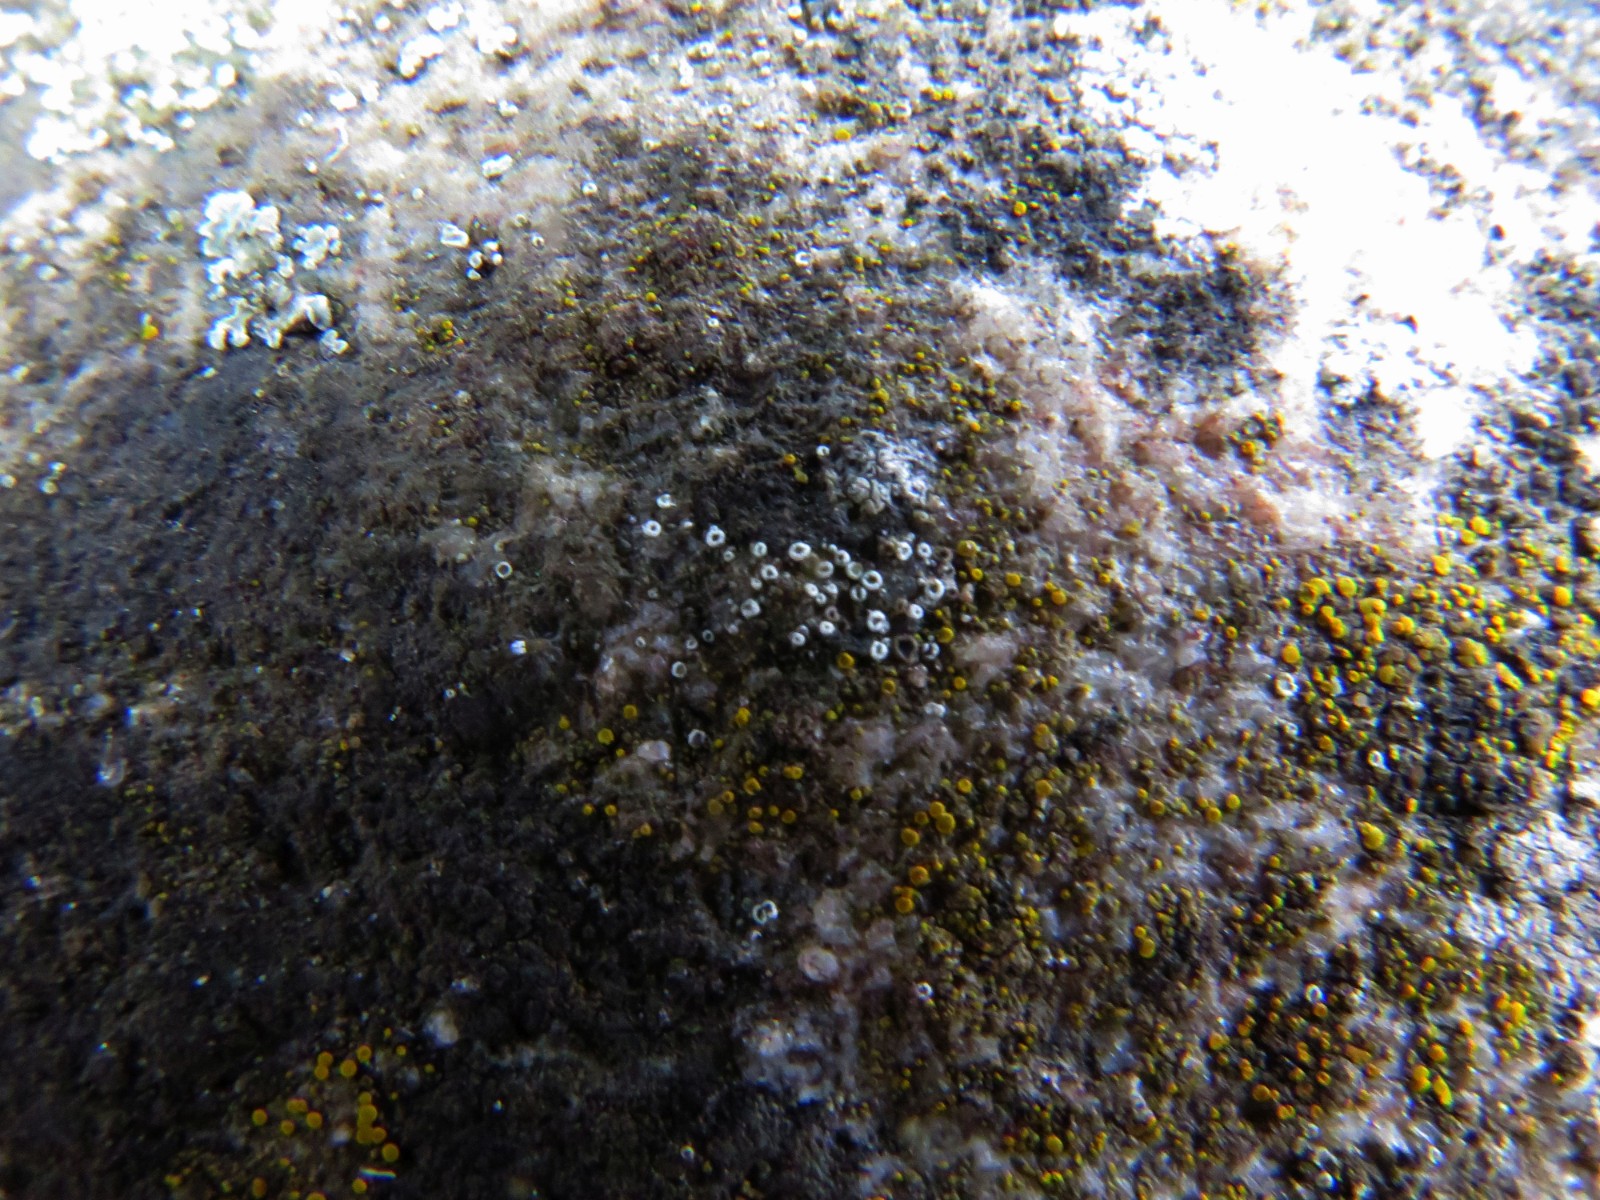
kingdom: Fungi
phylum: Ascomycota
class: Lecanoromycetes
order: Lecanorales
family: Lecanoraceae
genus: Polyozosia
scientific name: Polyozosia dispersa
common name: spredt kantskivelav
